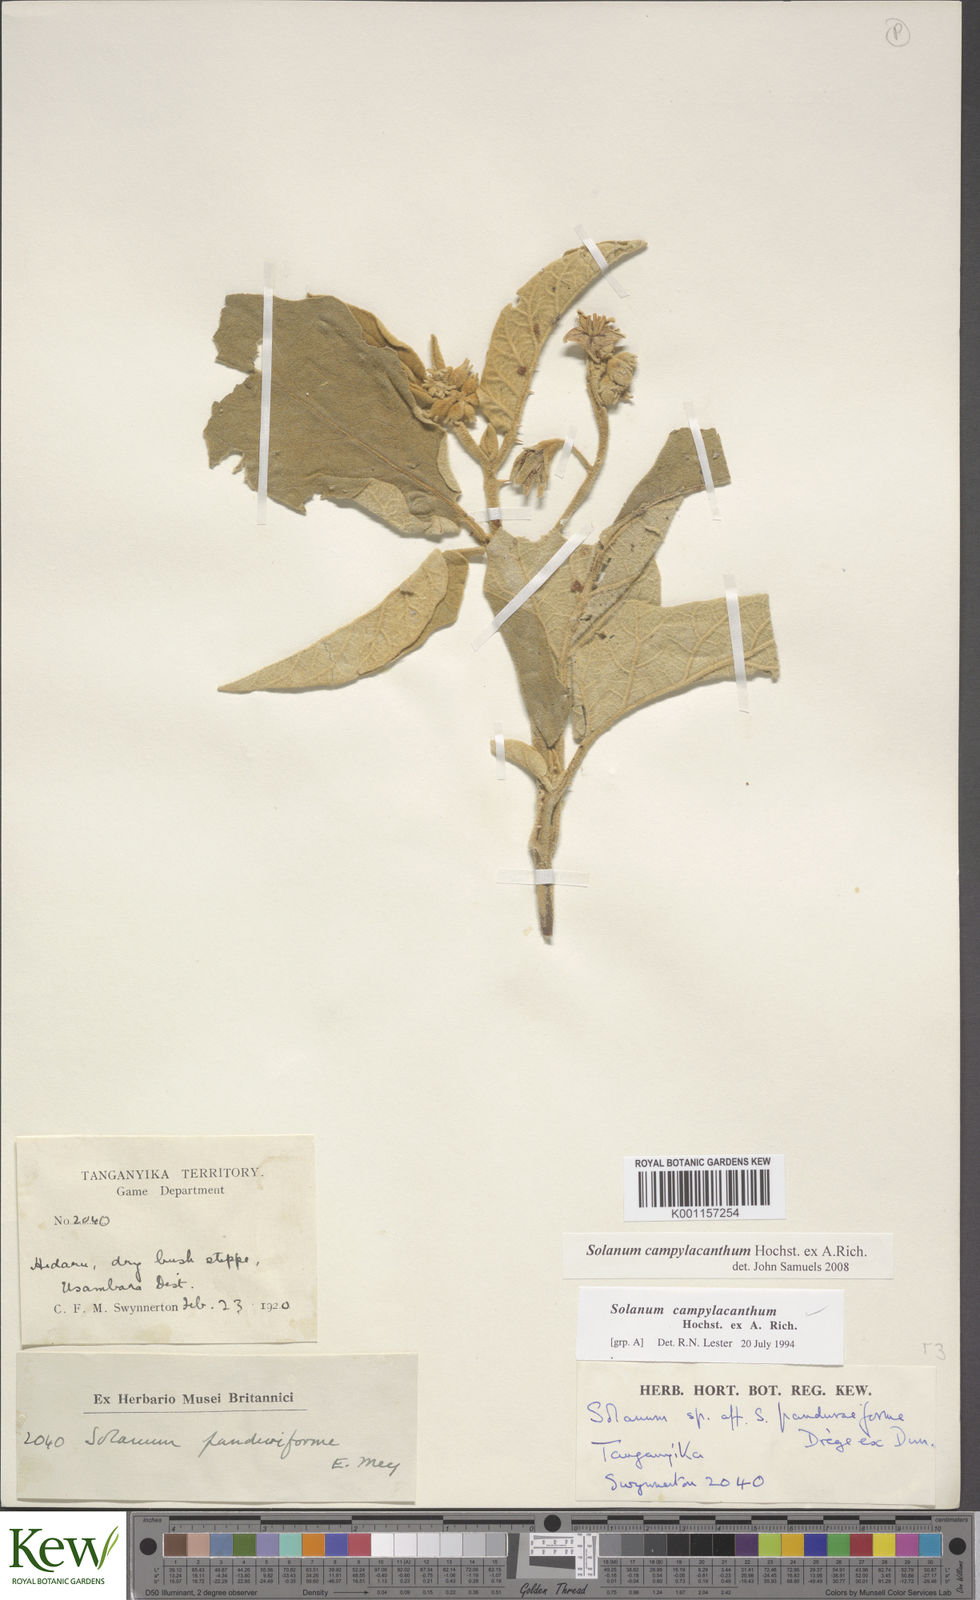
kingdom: Plantae
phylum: Tracheophyta
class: Magnoliopsida
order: Solanales
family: Solanaceae
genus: Solanum
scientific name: Solanum campylacanthum
